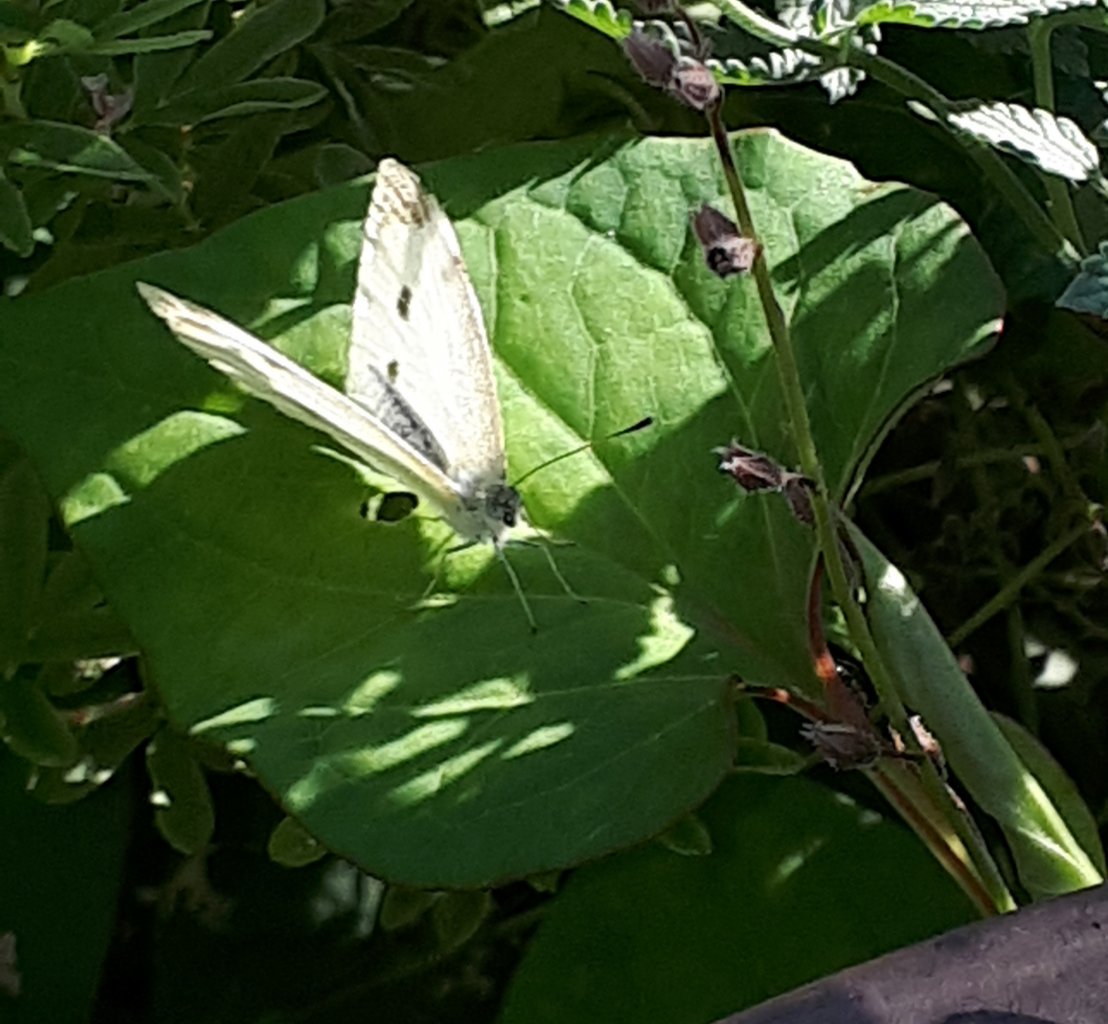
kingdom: Animalia
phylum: Arthropoda
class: Insecta
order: Lepidoptera
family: Pieridae
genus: Pieris
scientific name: Pieris rapae
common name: Cabbage White
